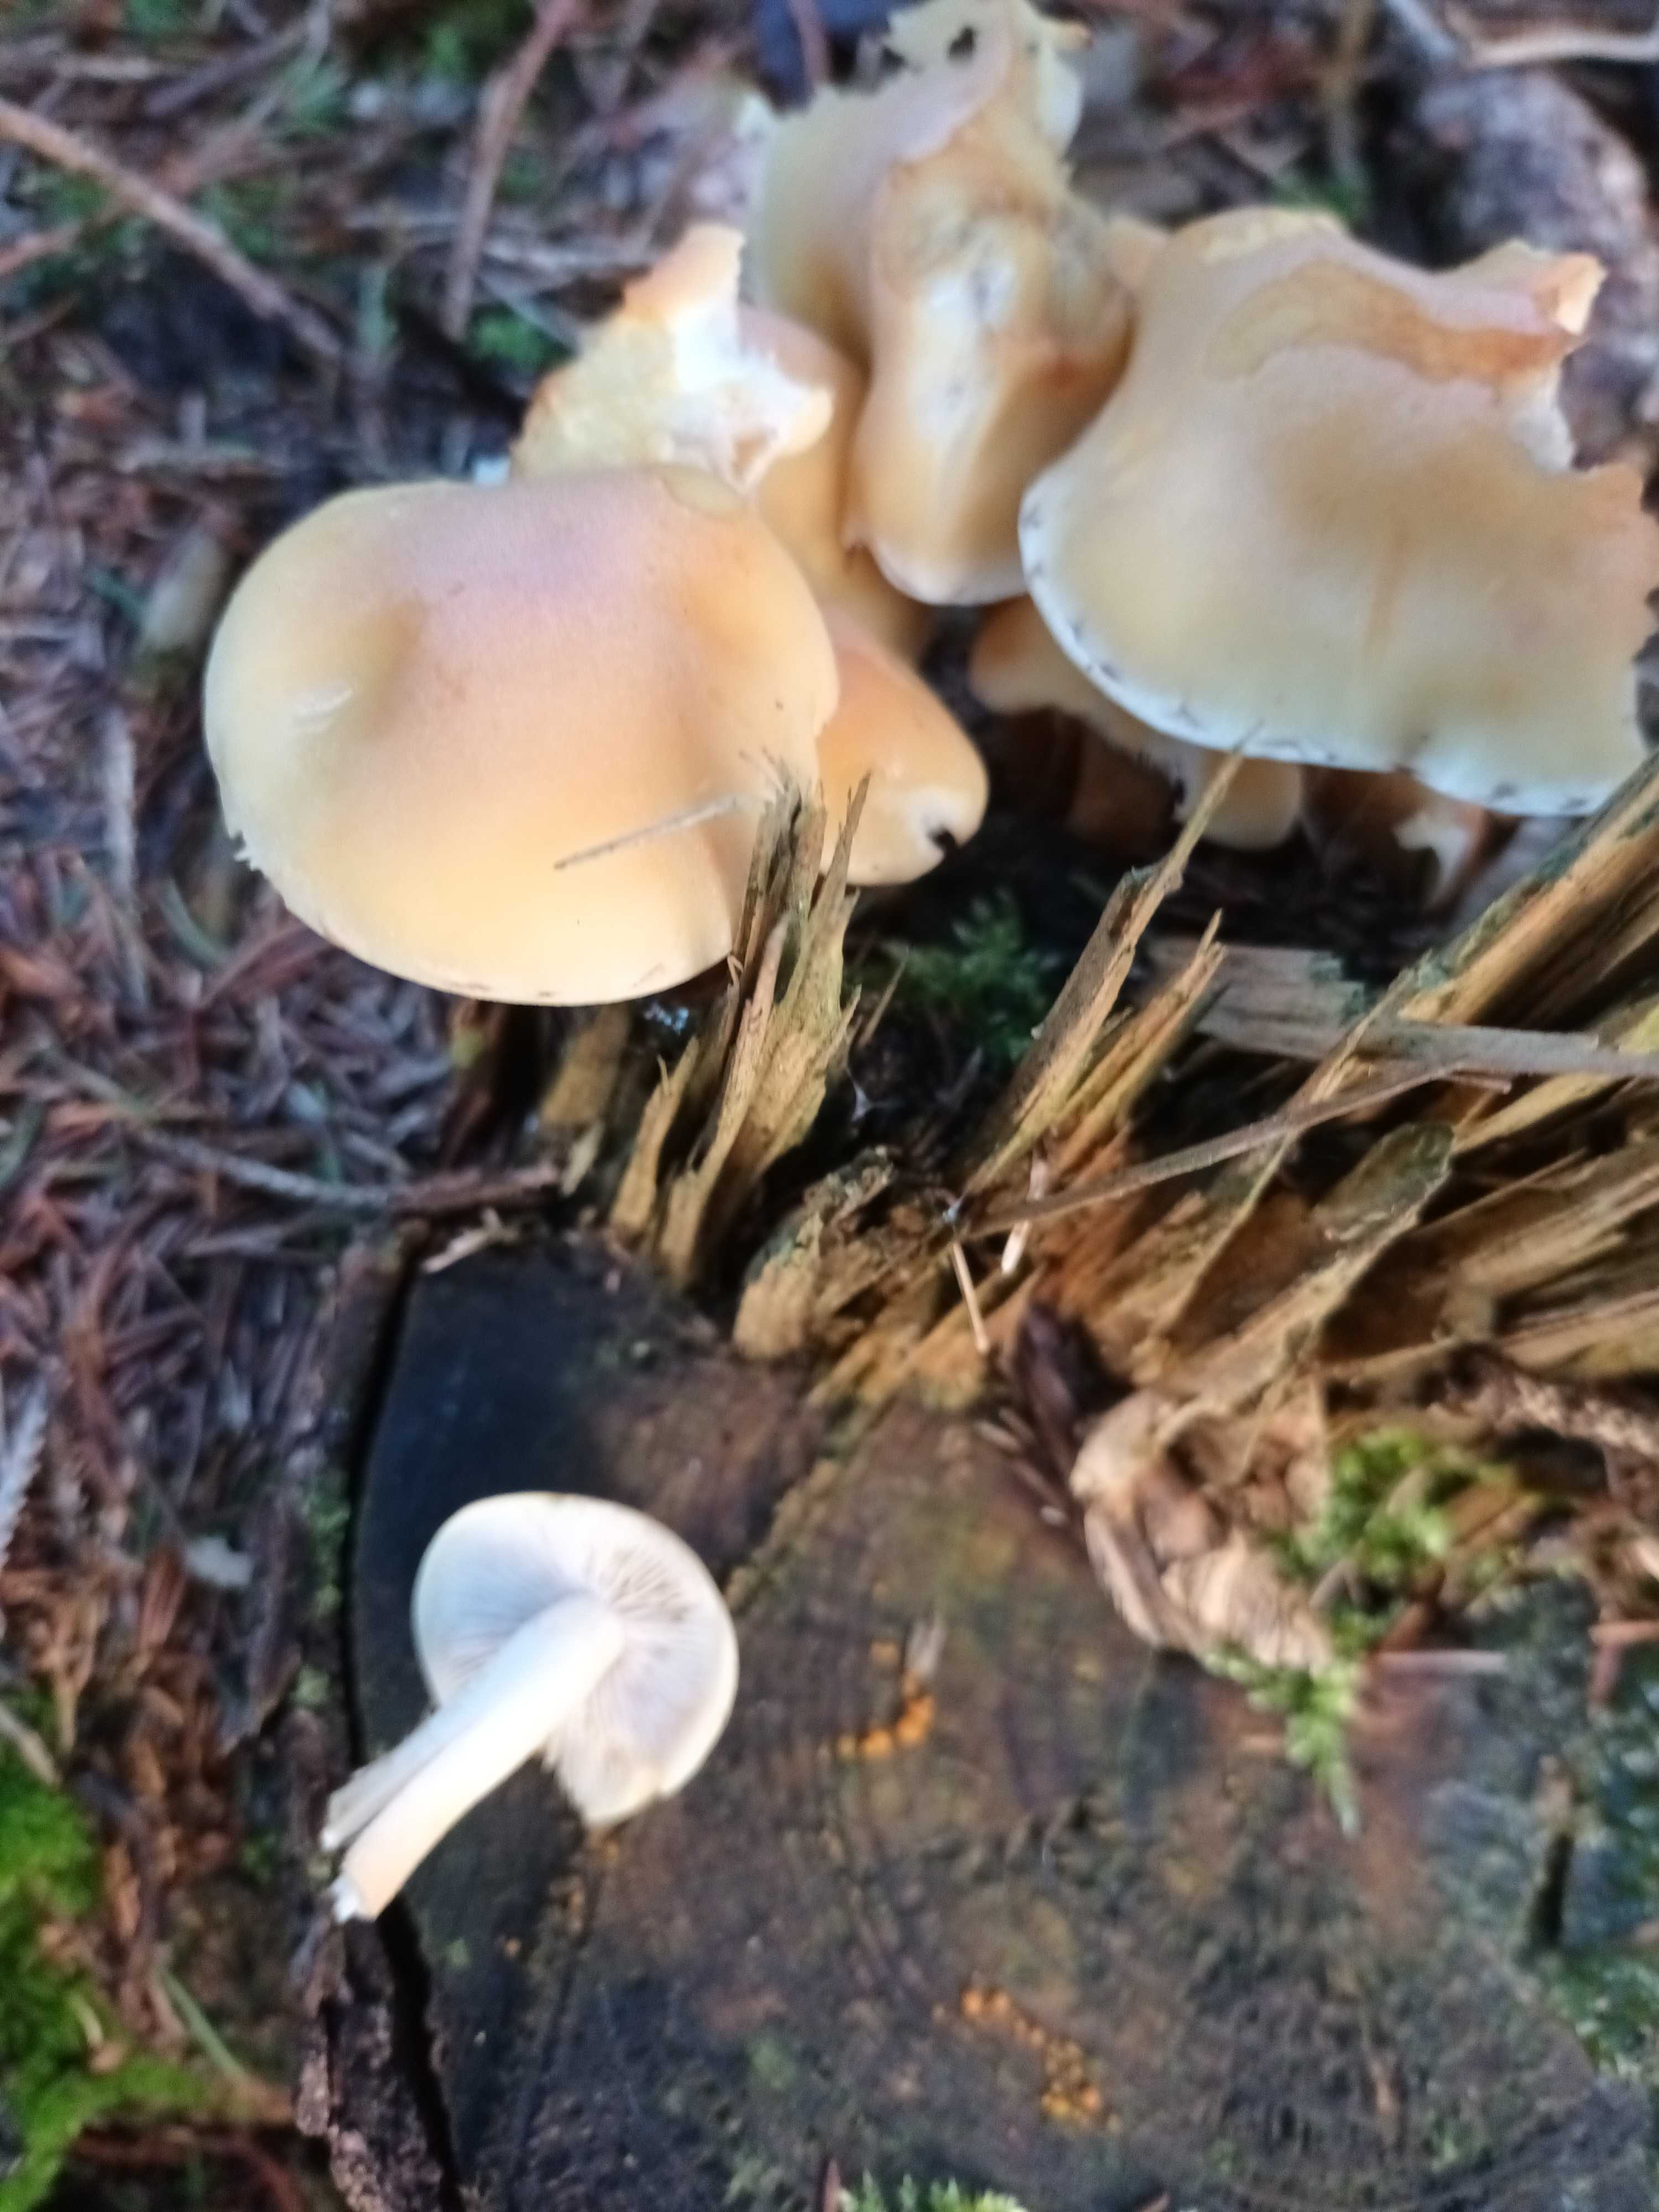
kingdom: Fungi
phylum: Basidiomycota
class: Agaricomycetes
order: Agaricales
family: Strophariaceae
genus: Hypholoma
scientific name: Hypholoma capnoides
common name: gran-svovlhat
